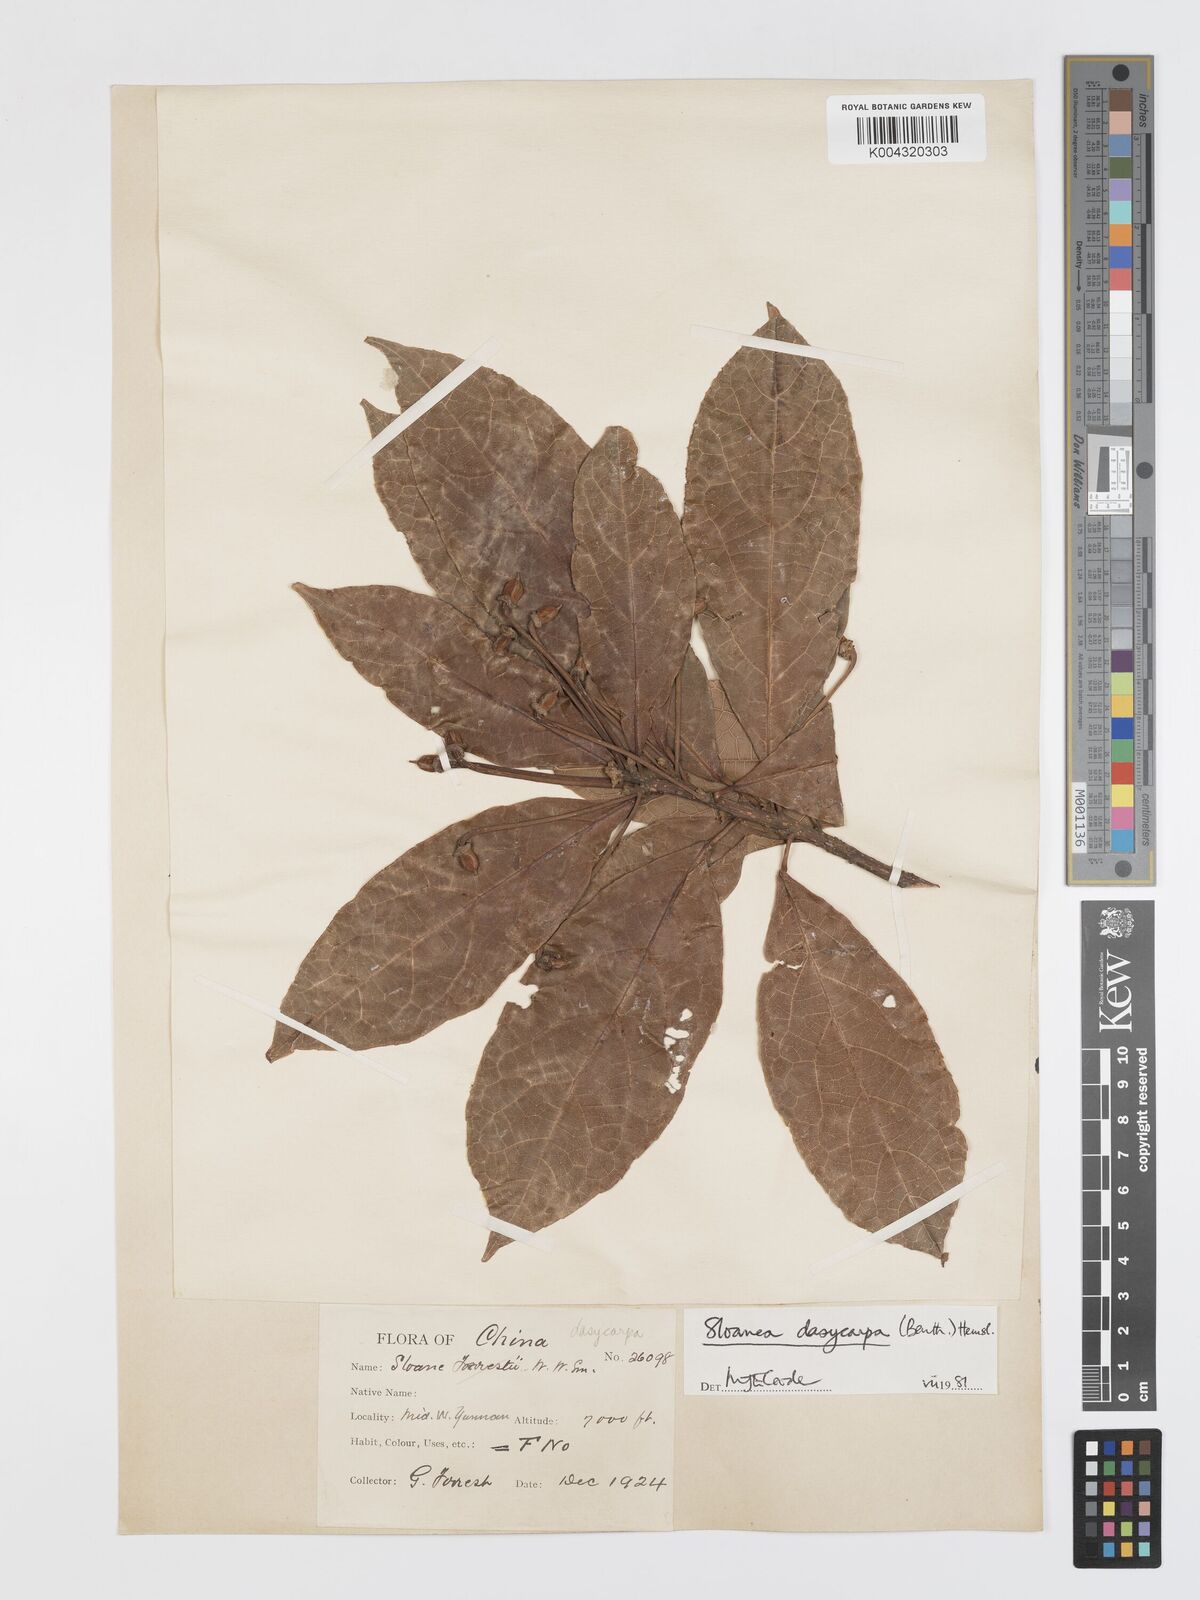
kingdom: Plantae
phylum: Tracheophyta
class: Magnoliopsida
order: Oxalidales
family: Elaeocarpaceae
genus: Sloanea
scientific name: Sloanea dasycarpa
